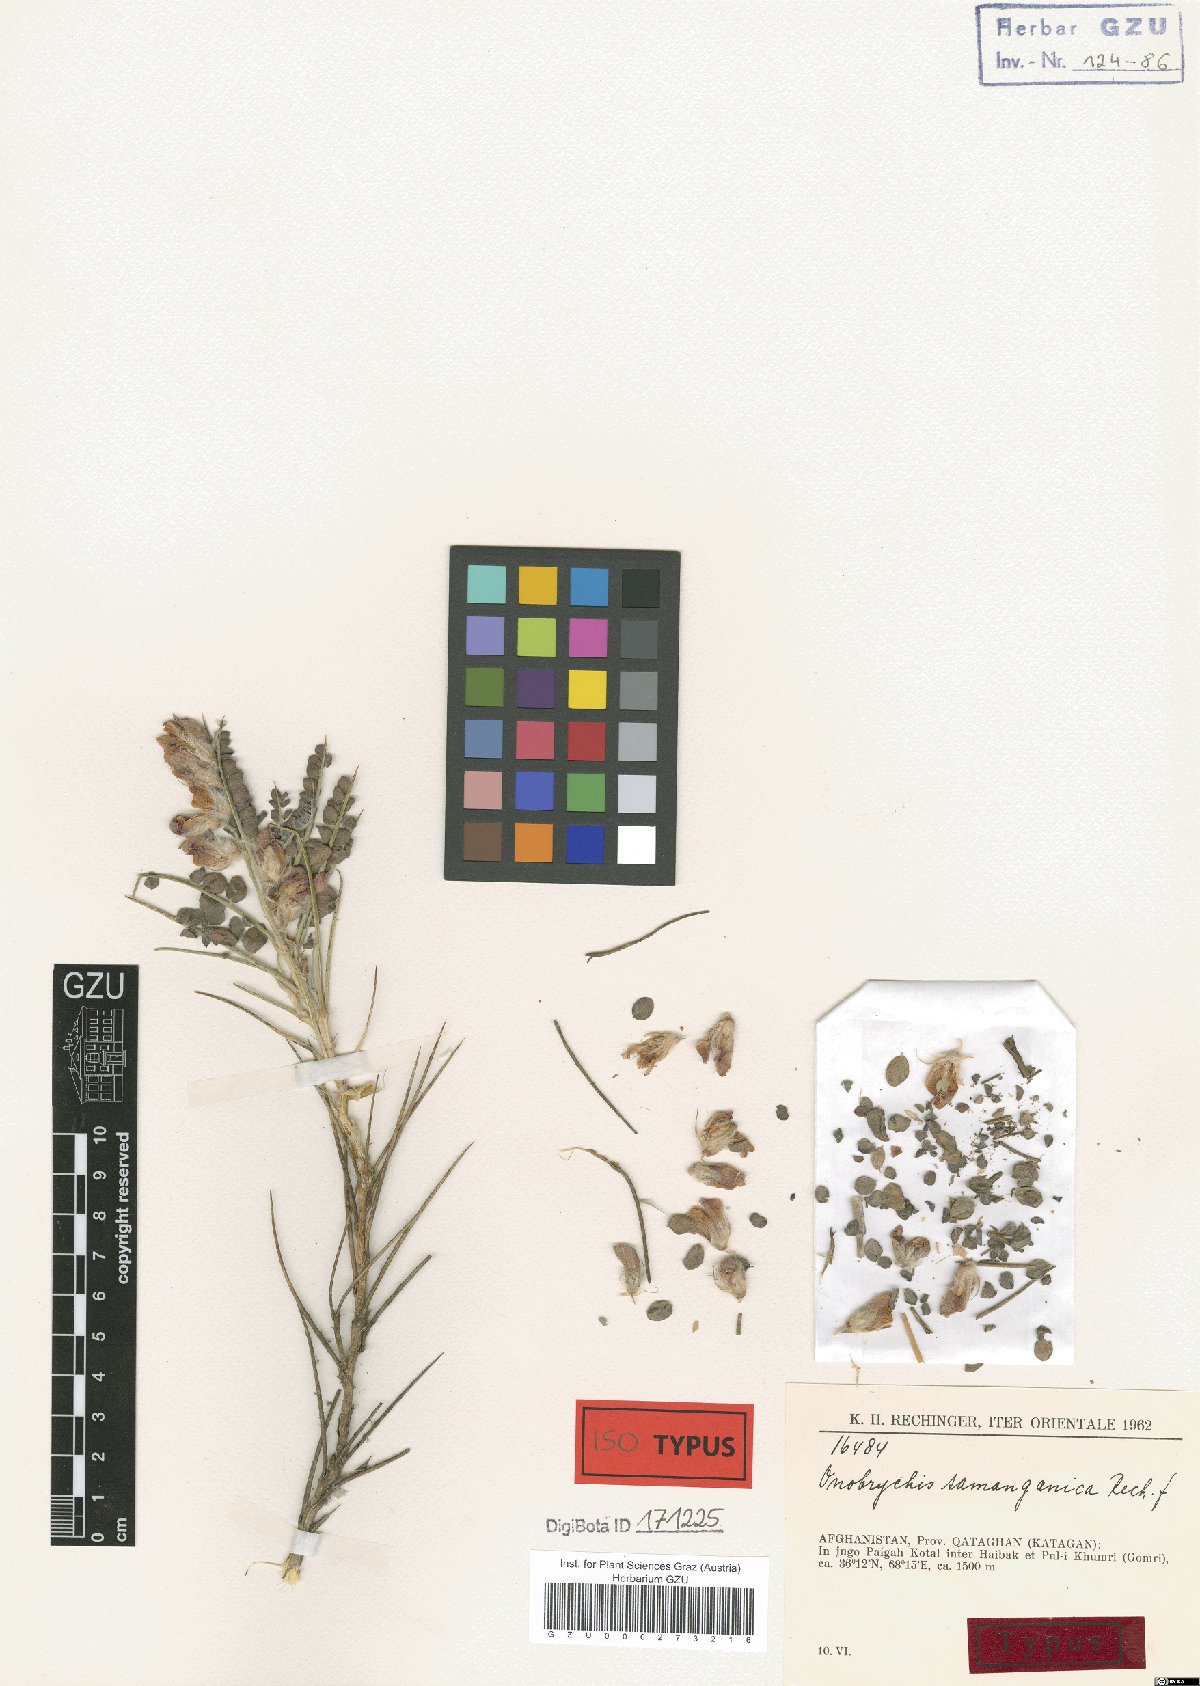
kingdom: Plantae
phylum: Tracheophyta
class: Magnoliopsida
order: Fabales
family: Fabaceae
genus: Onobrychis
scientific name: Onobrychis samanganica
